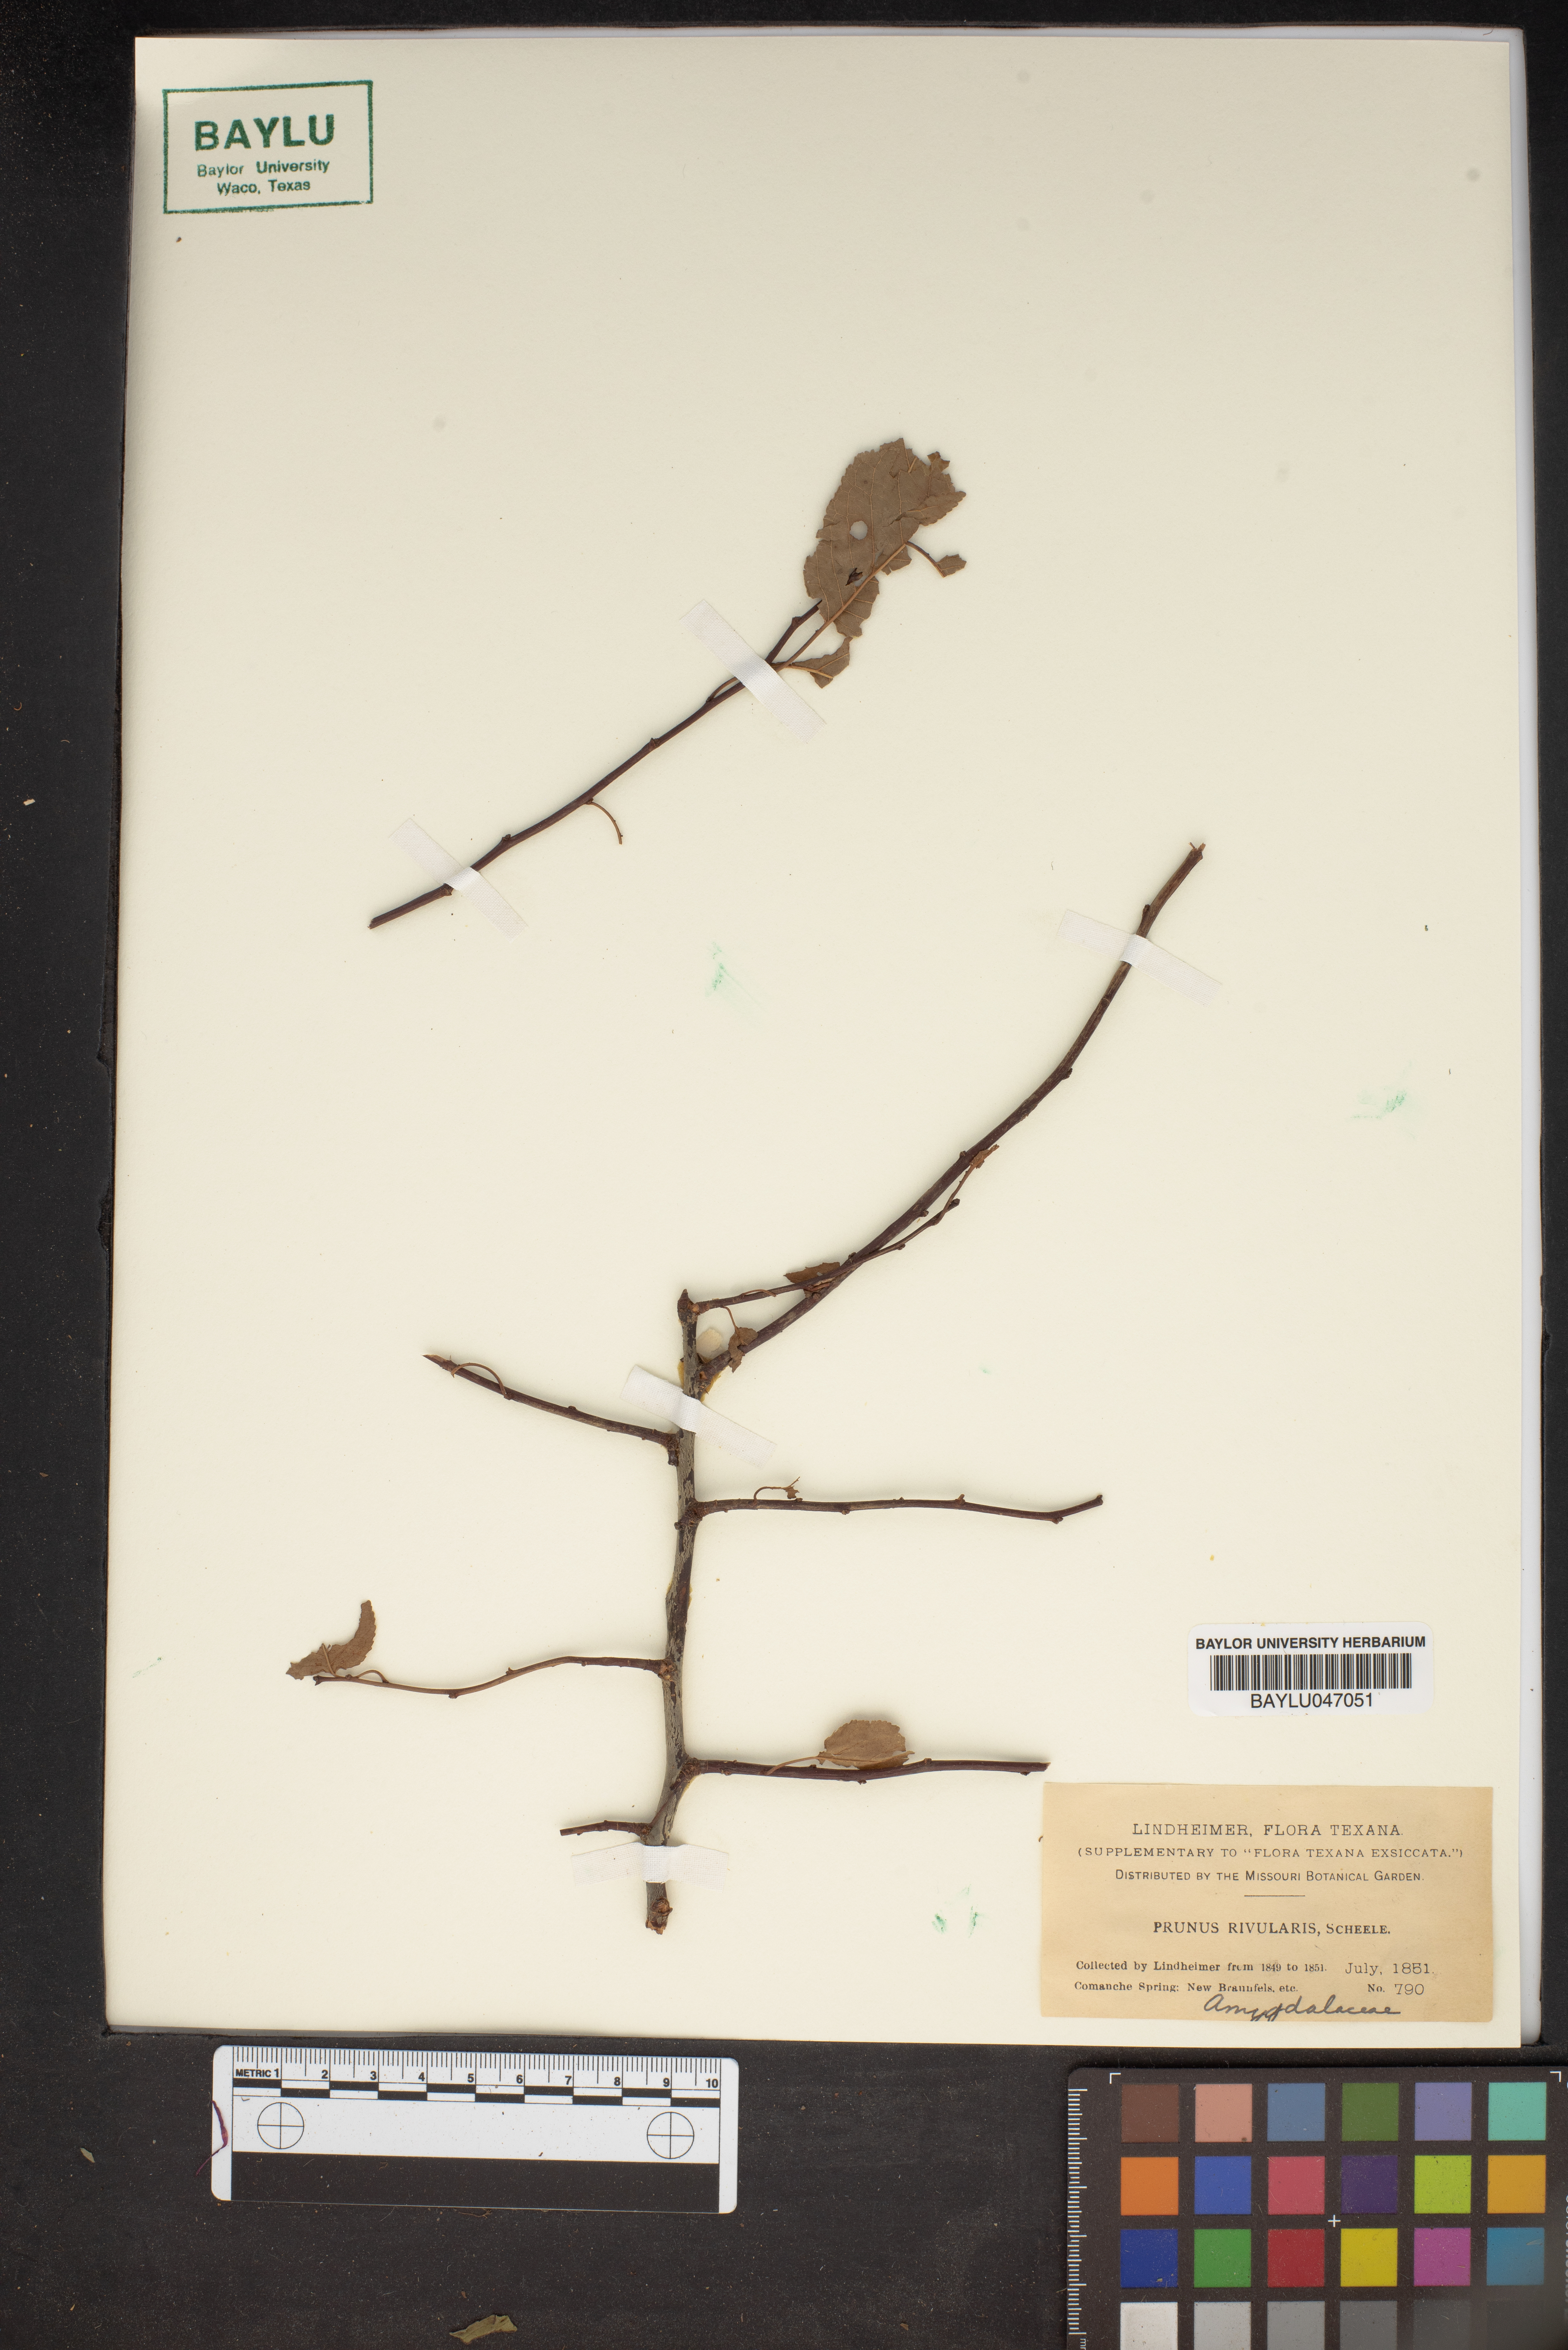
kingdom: Plantae
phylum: Tracheophyta
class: Magnoliopsida
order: Rosales
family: Rosaceae
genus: Prunus
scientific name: Prunus rivularis
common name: Creek plum
